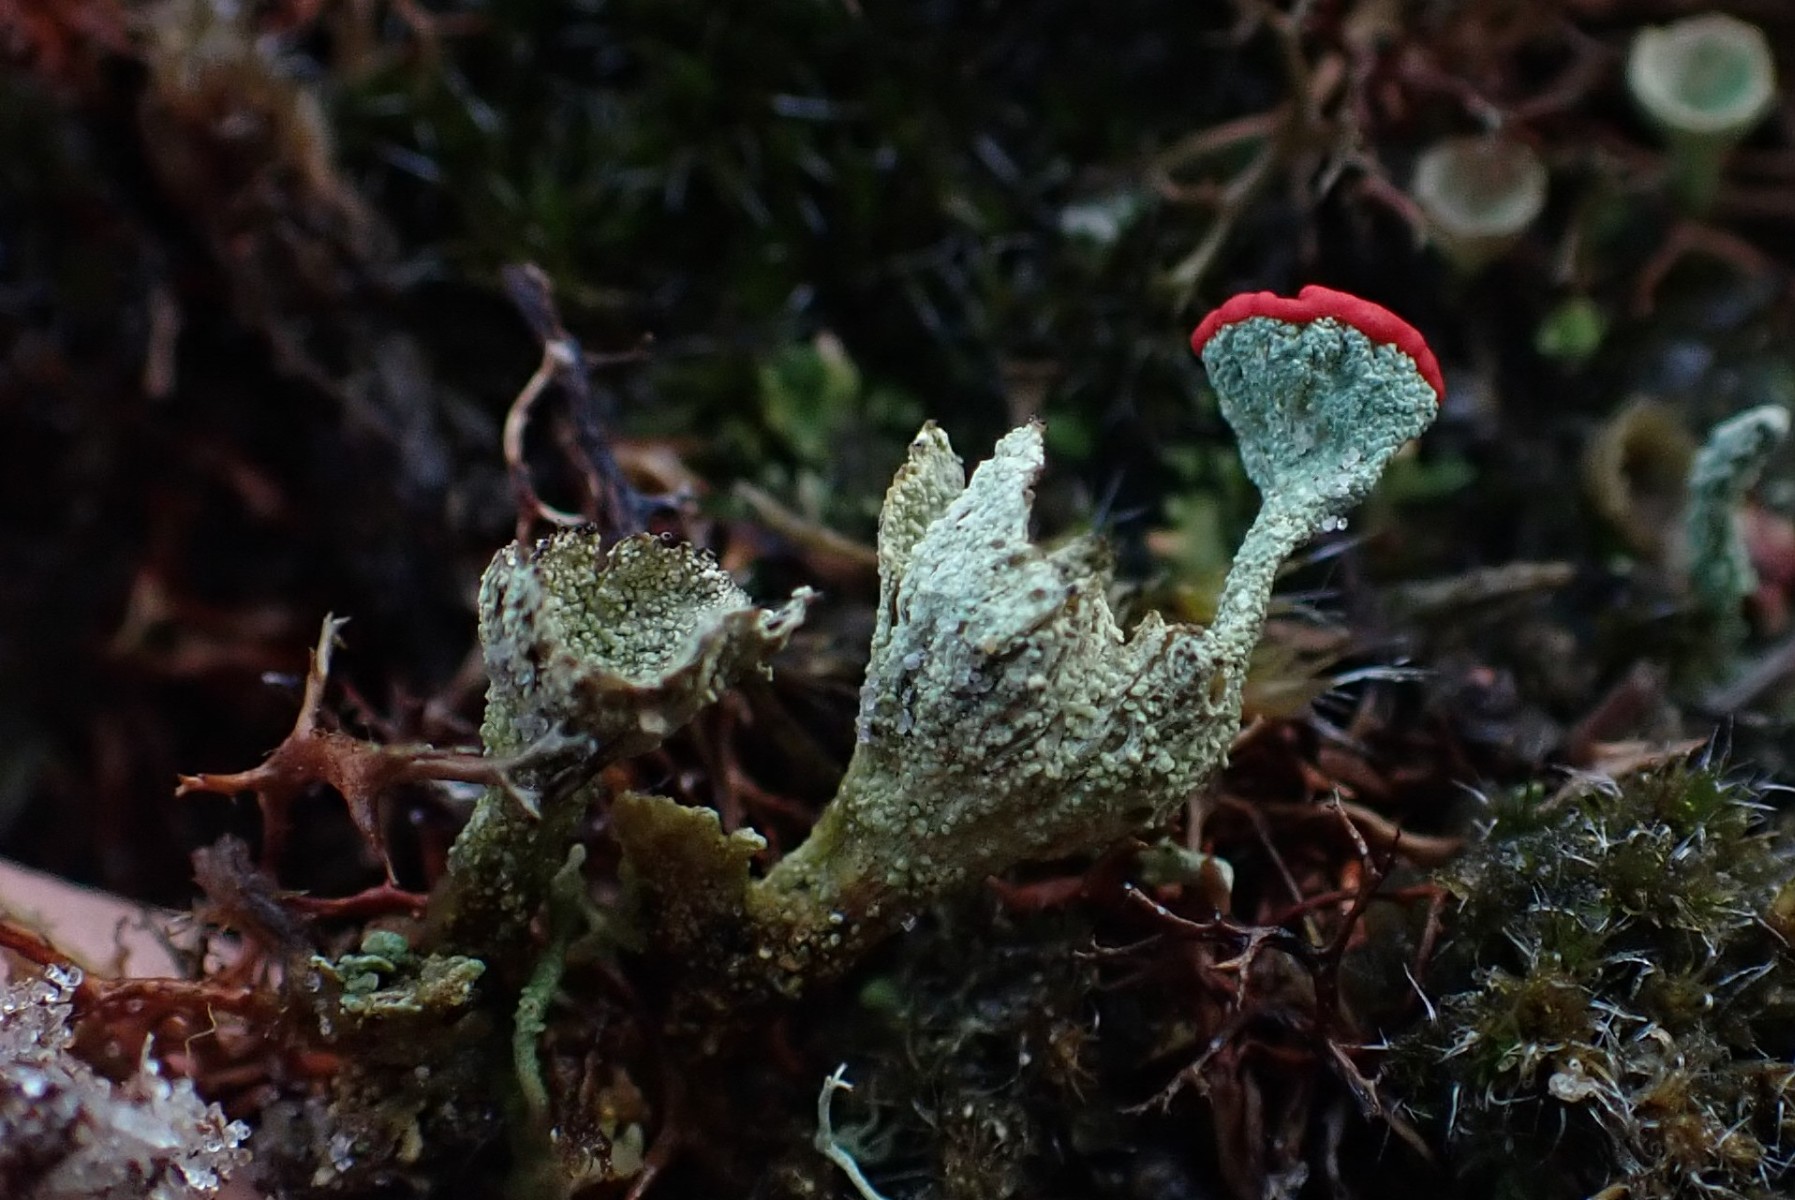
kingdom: Fungi
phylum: Ascomycota
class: Lecanoromycetes
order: Lecanorales
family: Cladoniaceae
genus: Cladonia
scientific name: Cladonia diversa
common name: rød bægerlav
